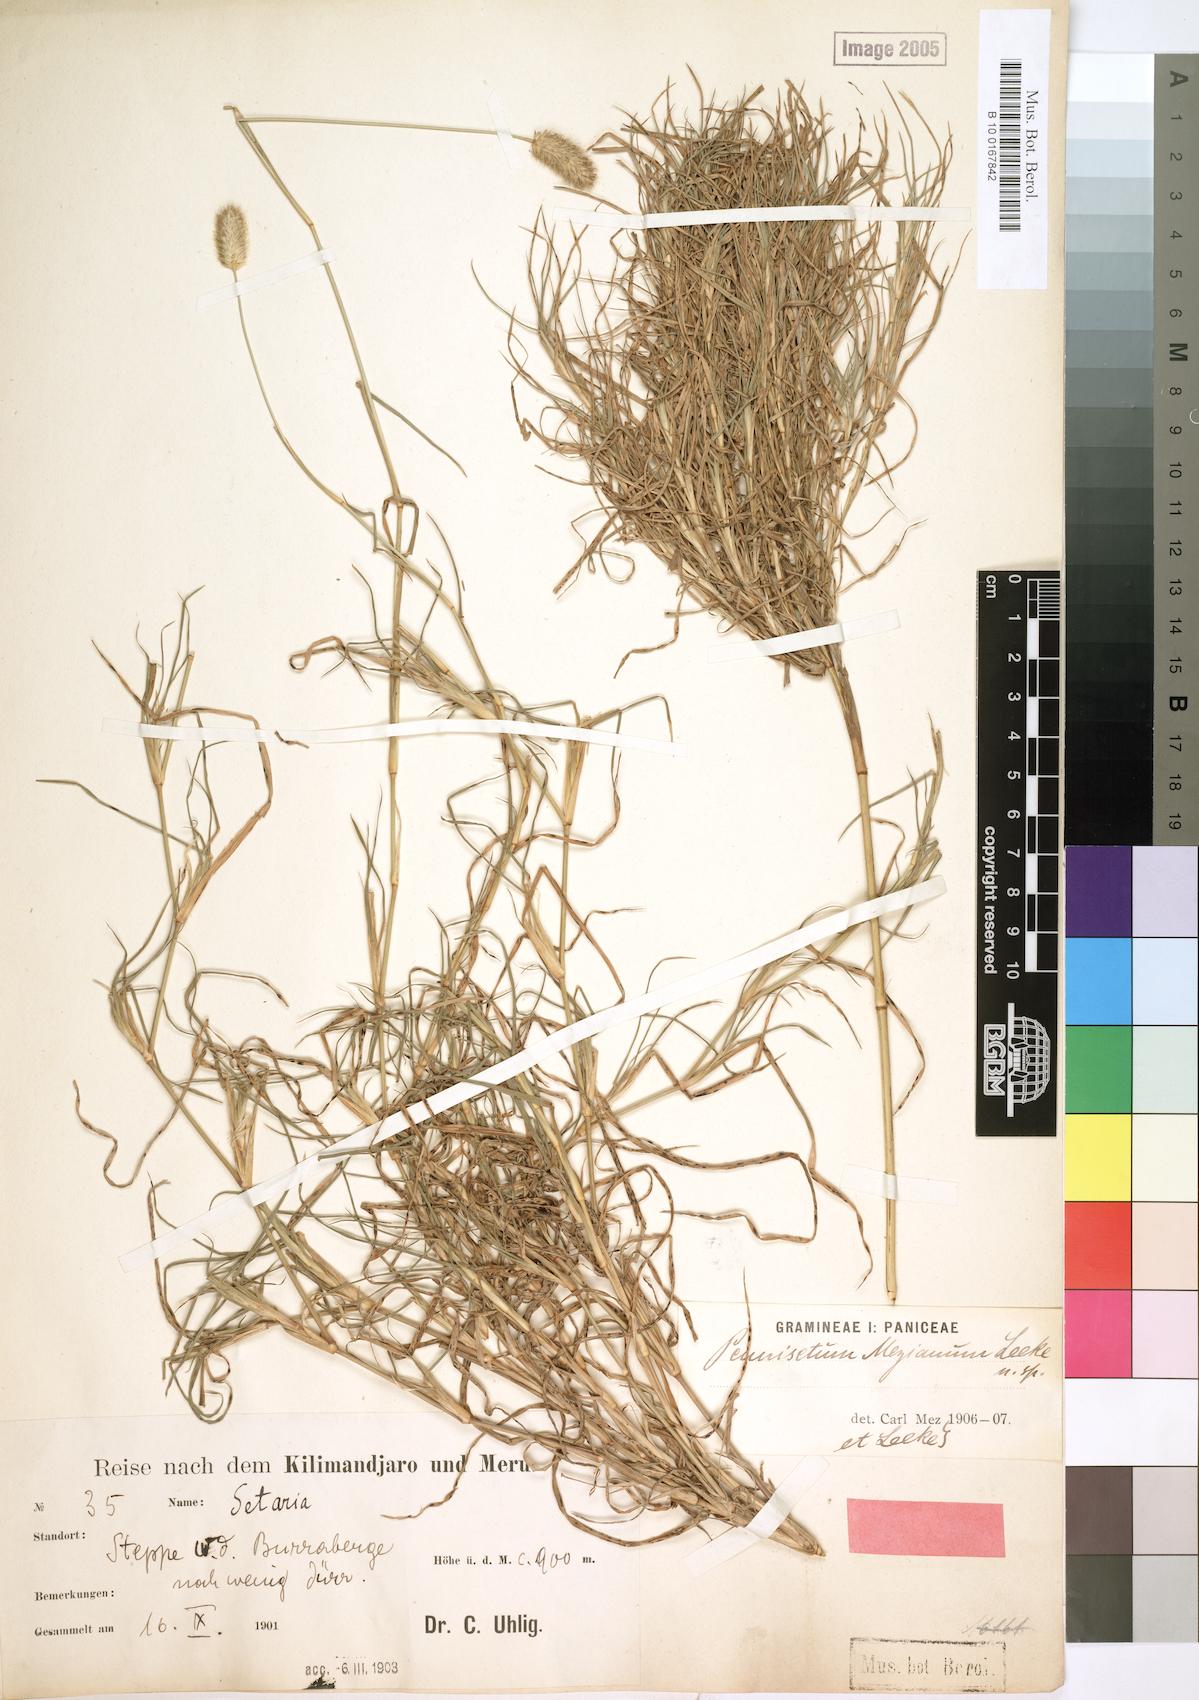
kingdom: Plantae
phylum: Tracheophyta
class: Liliopsida
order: Poales
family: Poaceae
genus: Cenchrus
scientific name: Cenchrus mezianus
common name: Bamboo grass
